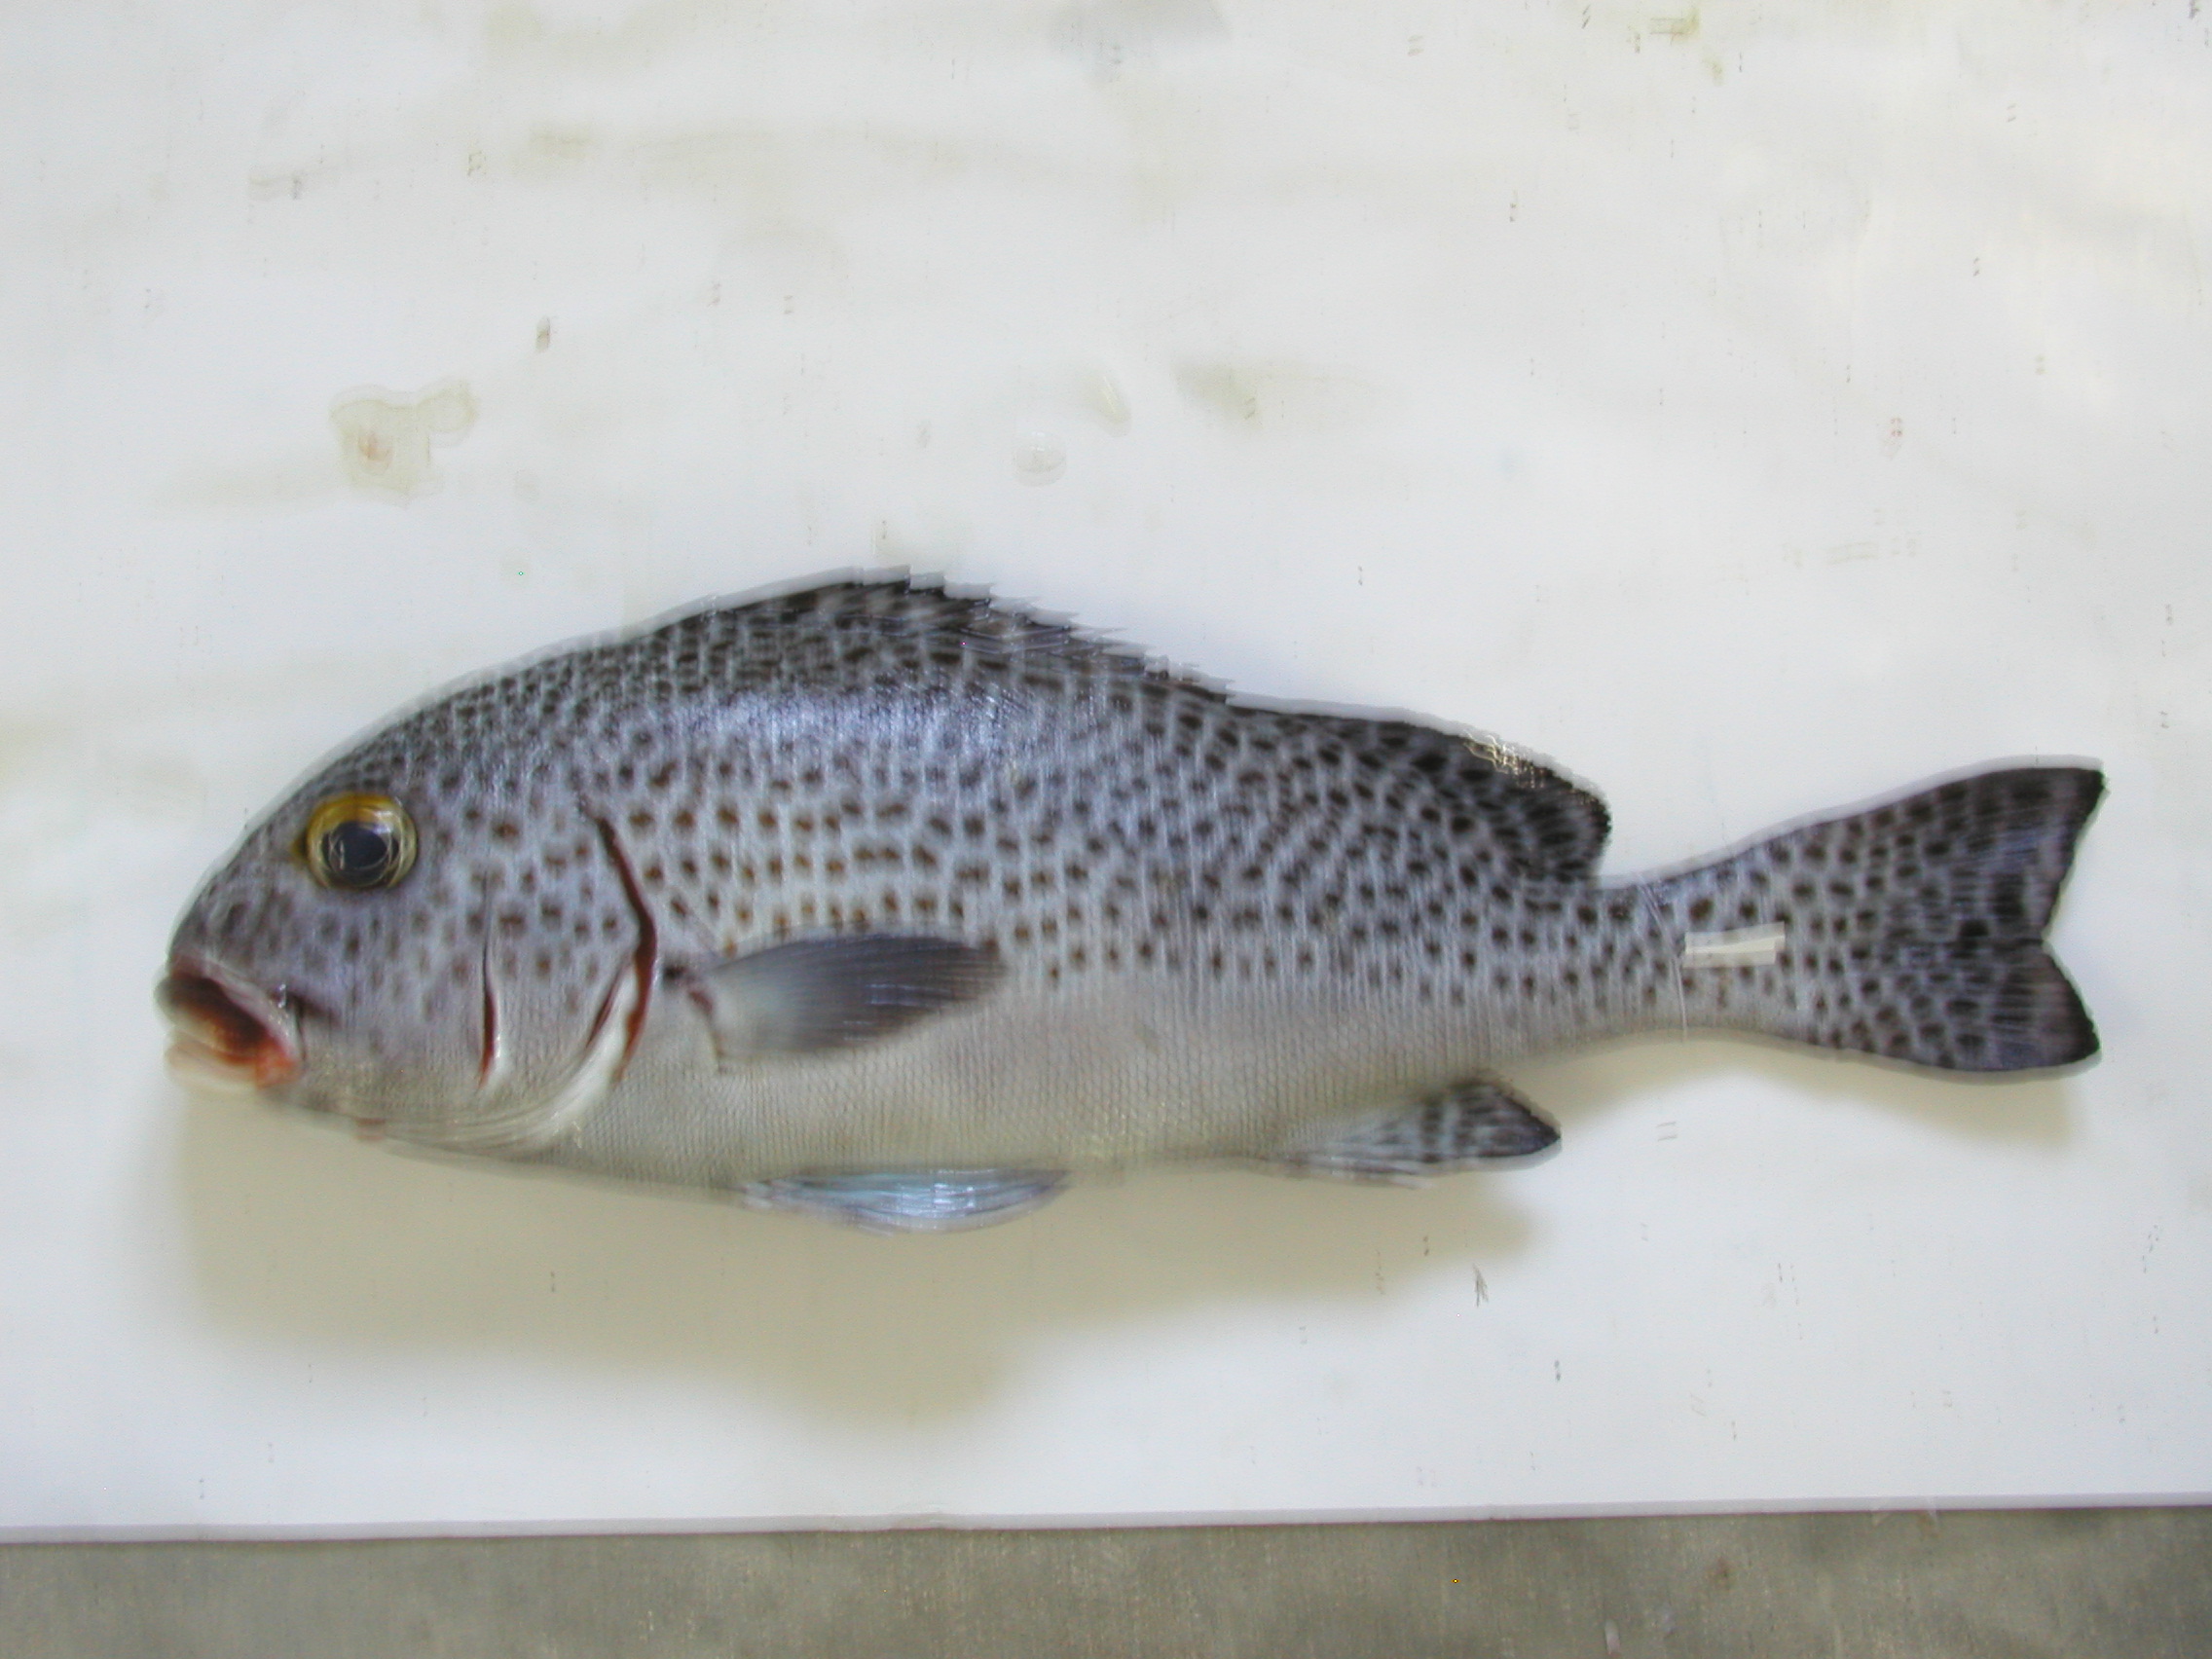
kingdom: Animalia
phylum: Chordata
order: Perciformes
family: Haemulidae
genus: Plectorhinchus
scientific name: Plectorhinchus chaetodonoides
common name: Harlequin sweetlips
